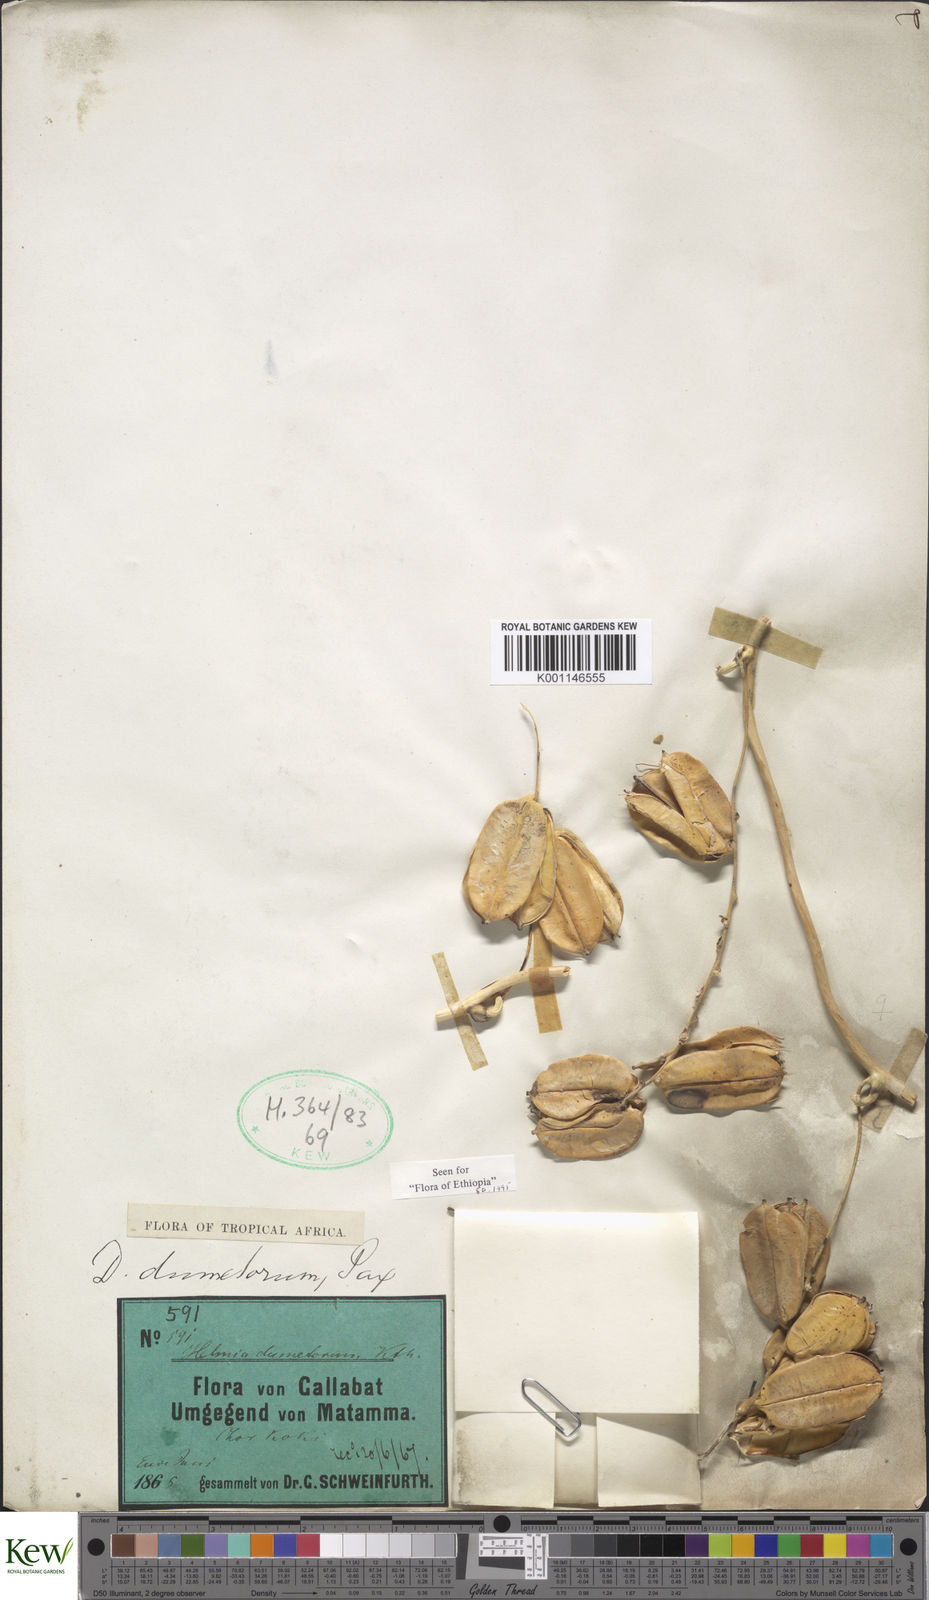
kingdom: Plantae
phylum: Tracheophyta
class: Liliopsida
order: Dioscoreales
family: Dioscoreaceae
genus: Dioscorea
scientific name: Dioscorea dumetorum
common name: African bitter yam
